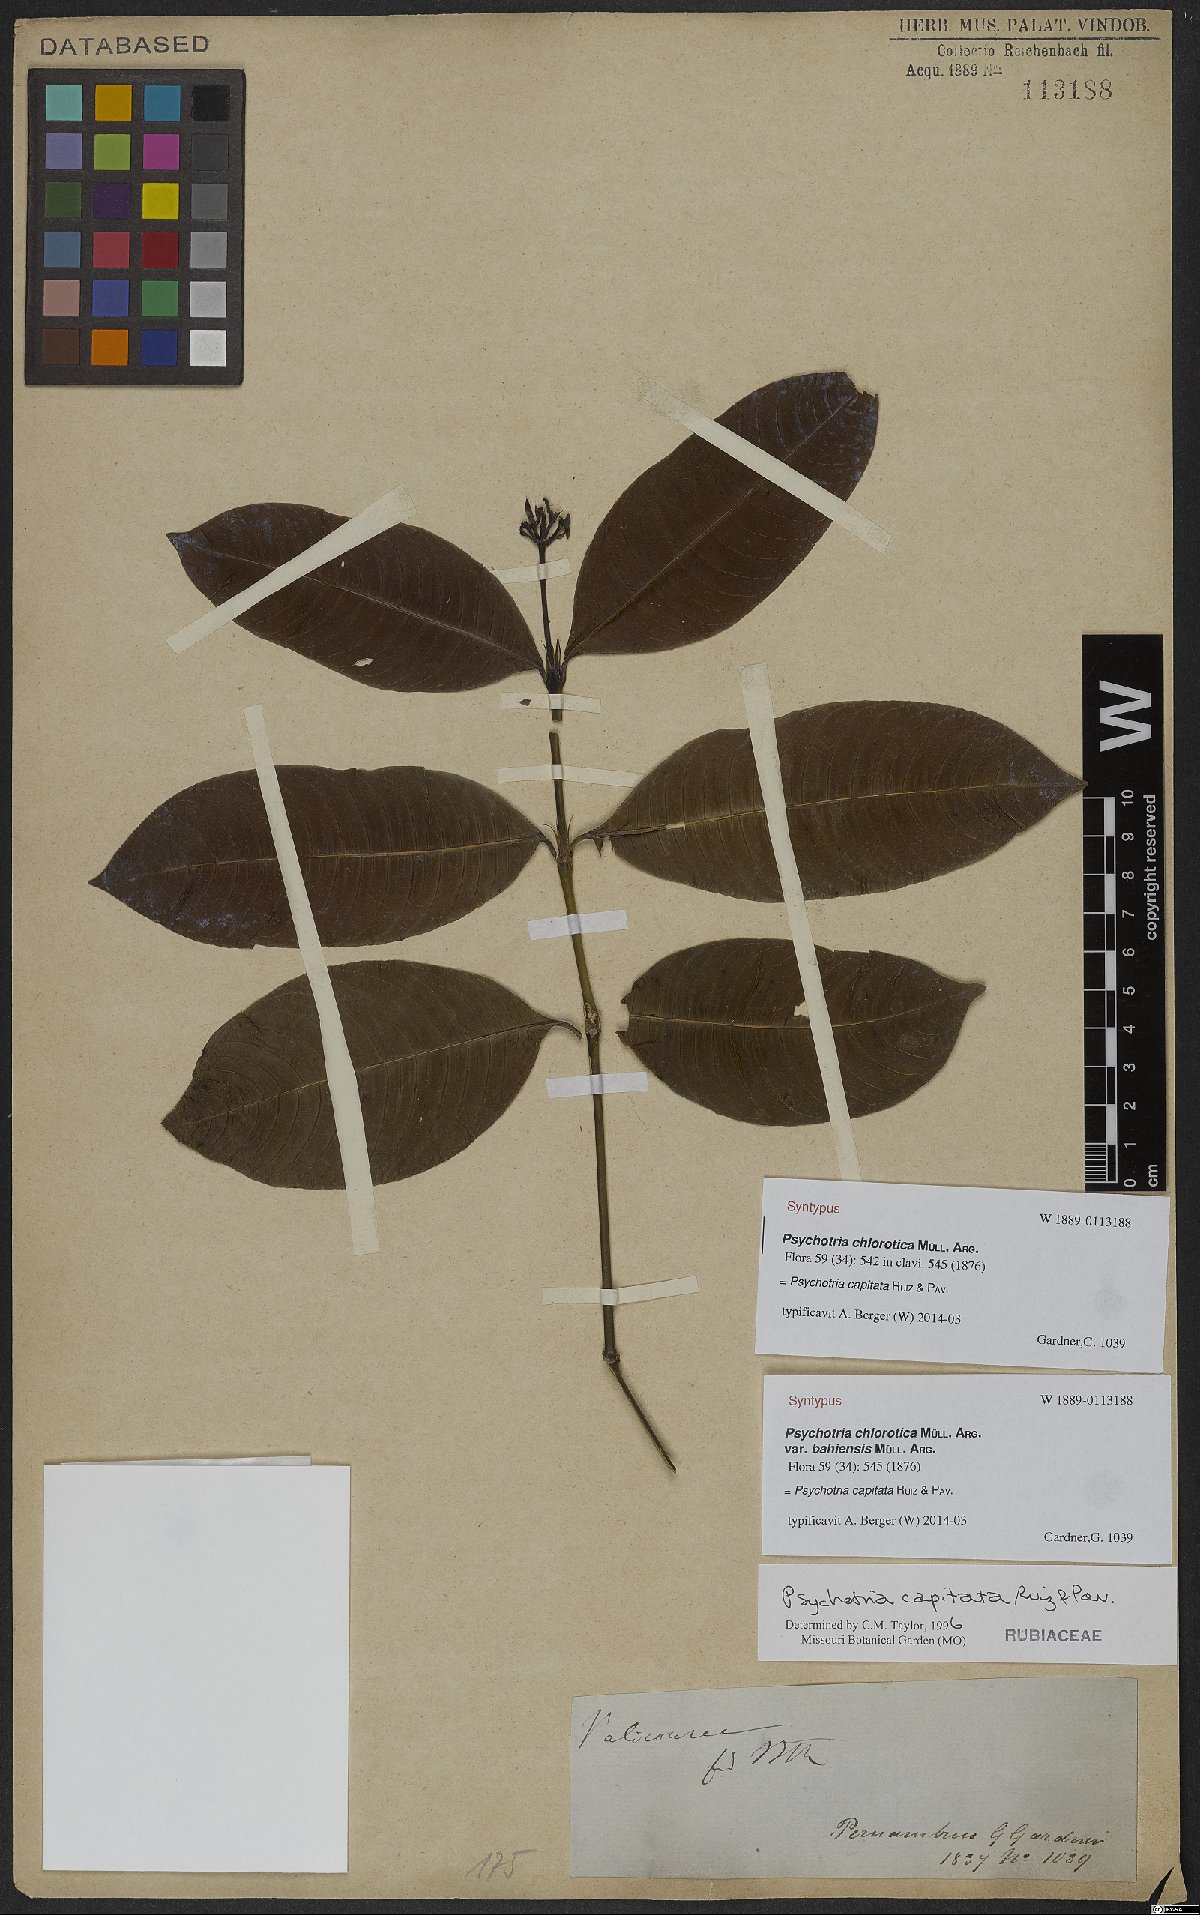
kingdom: Plantae
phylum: Tracheophyta
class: Magnoliopsida
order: Gentianales
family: Rubiaceae
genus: Palicourea
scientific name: Palicourea violacea
